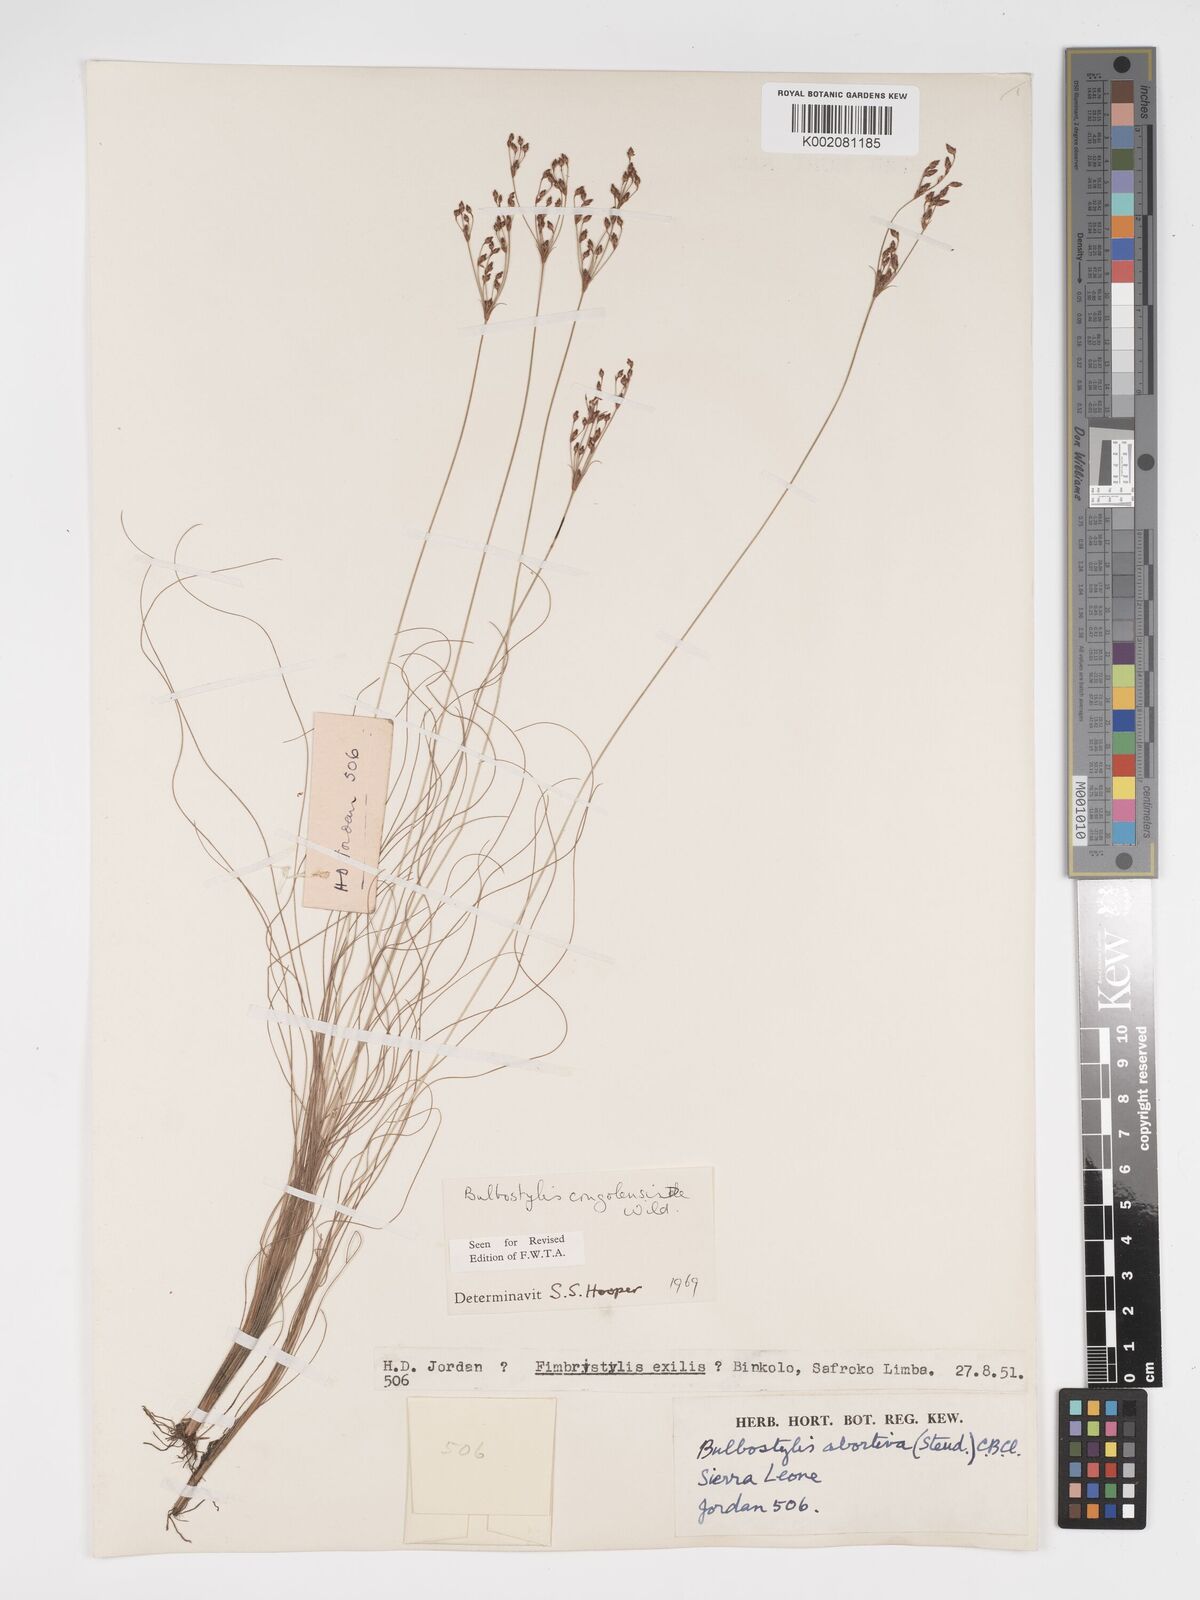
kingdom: Plantae
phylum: Tracheophyta
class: Liliopsida
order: Poales
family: Cyperaceae
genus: Bulbostylis
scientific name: Bulbostylis congolensis
